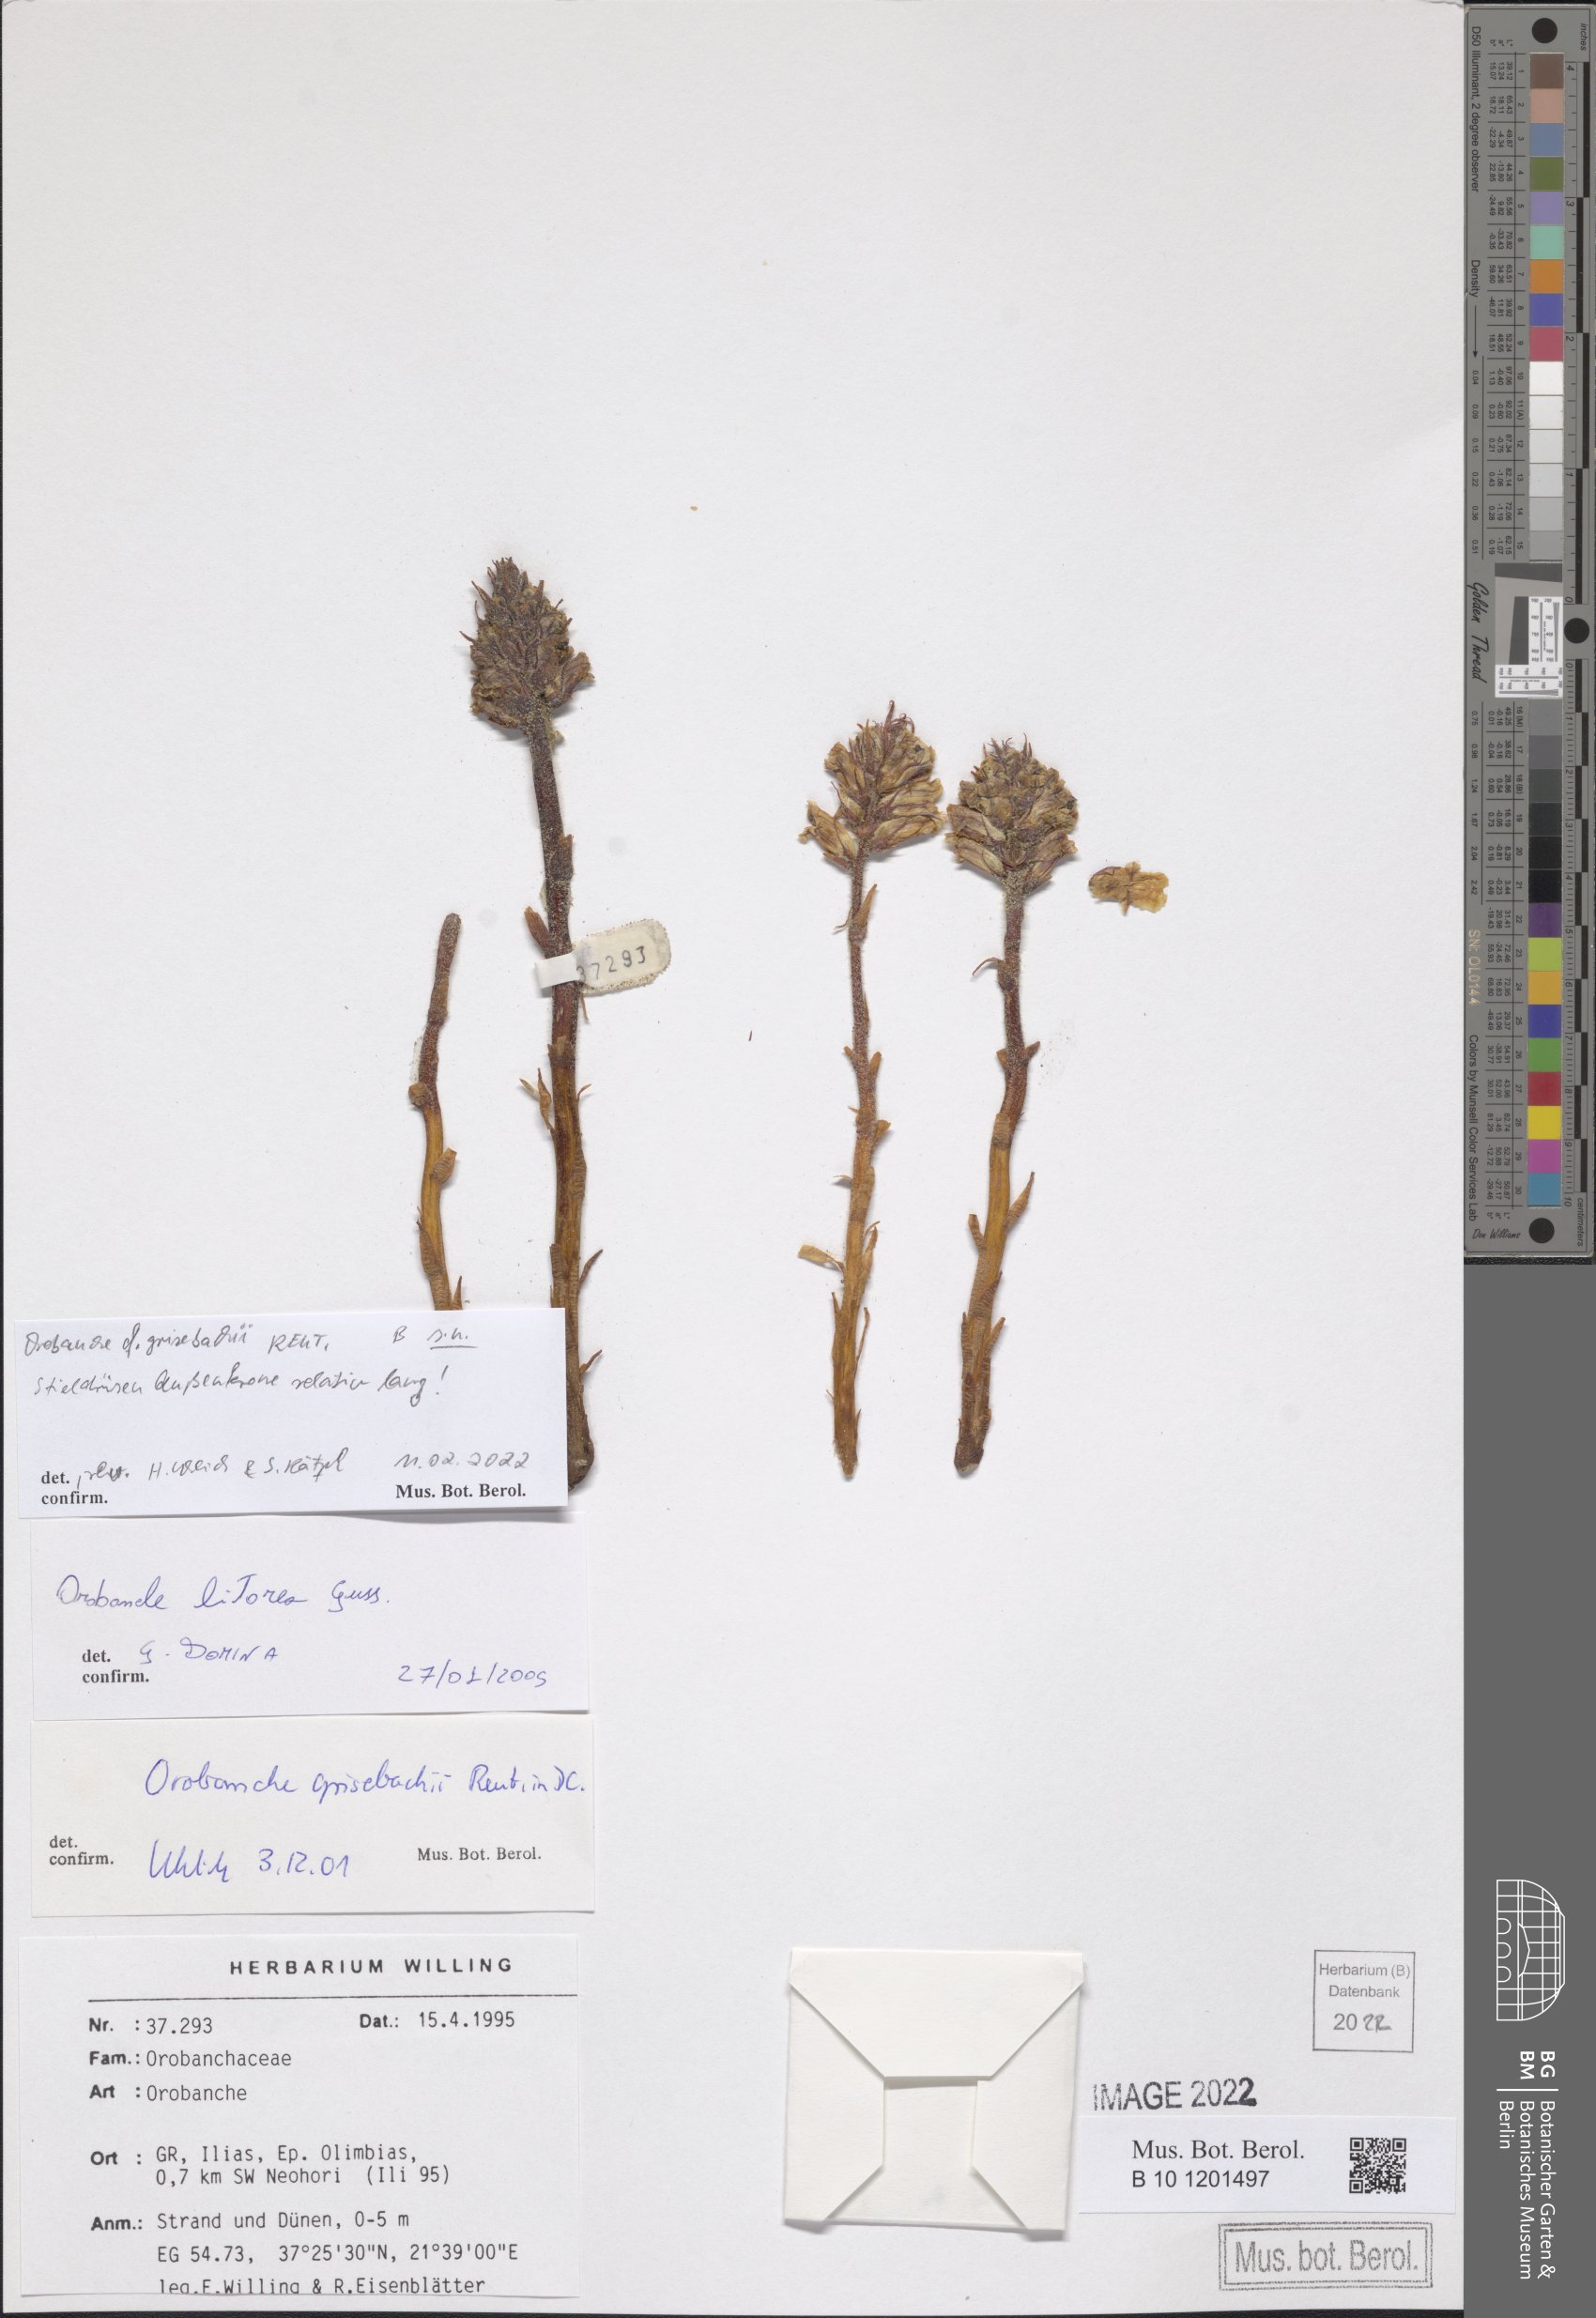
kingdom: Plantae
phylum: Tracheophyta
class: Magnoliopsida
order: Lamiales
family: Orobanchaceae
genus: Orobanche
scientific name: Orobanche grisebachii
